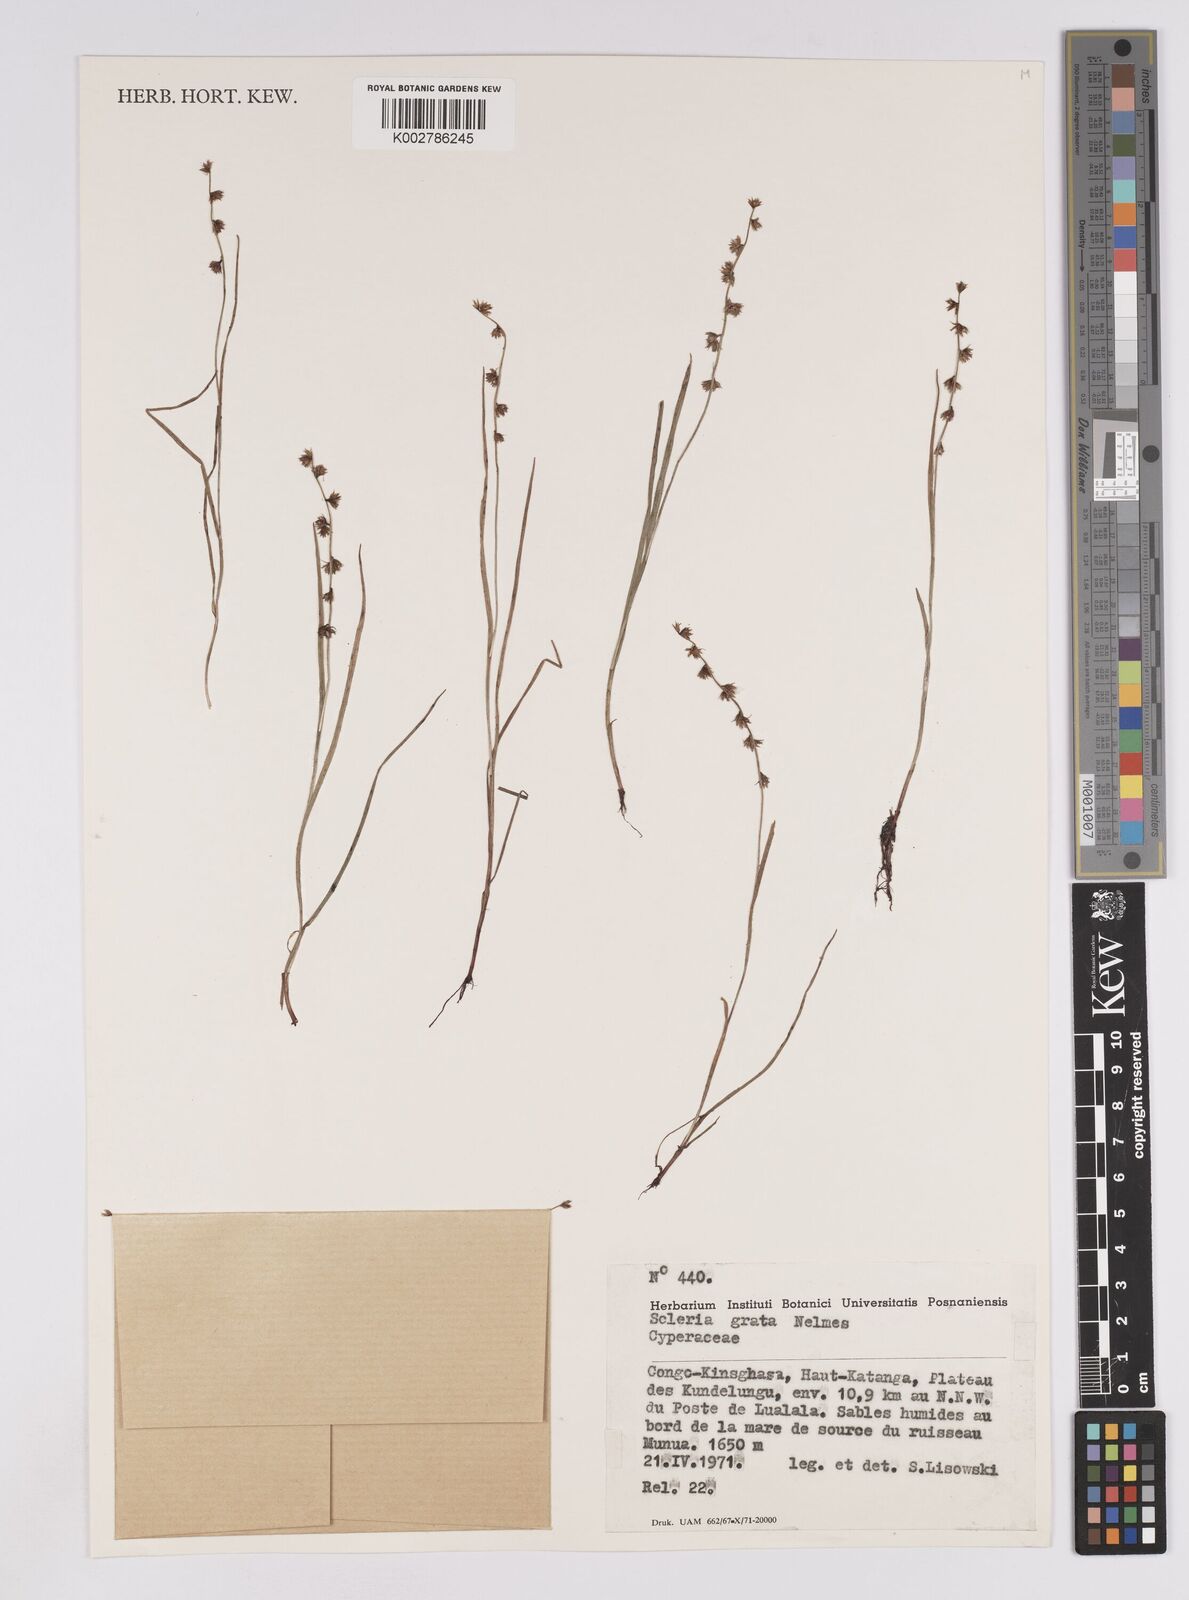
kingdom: Plantae
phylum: Tracheophyta
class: Liliopsida
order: Poales
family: Cyperaceae
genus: Scleria
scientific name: Scleria melanotricha
